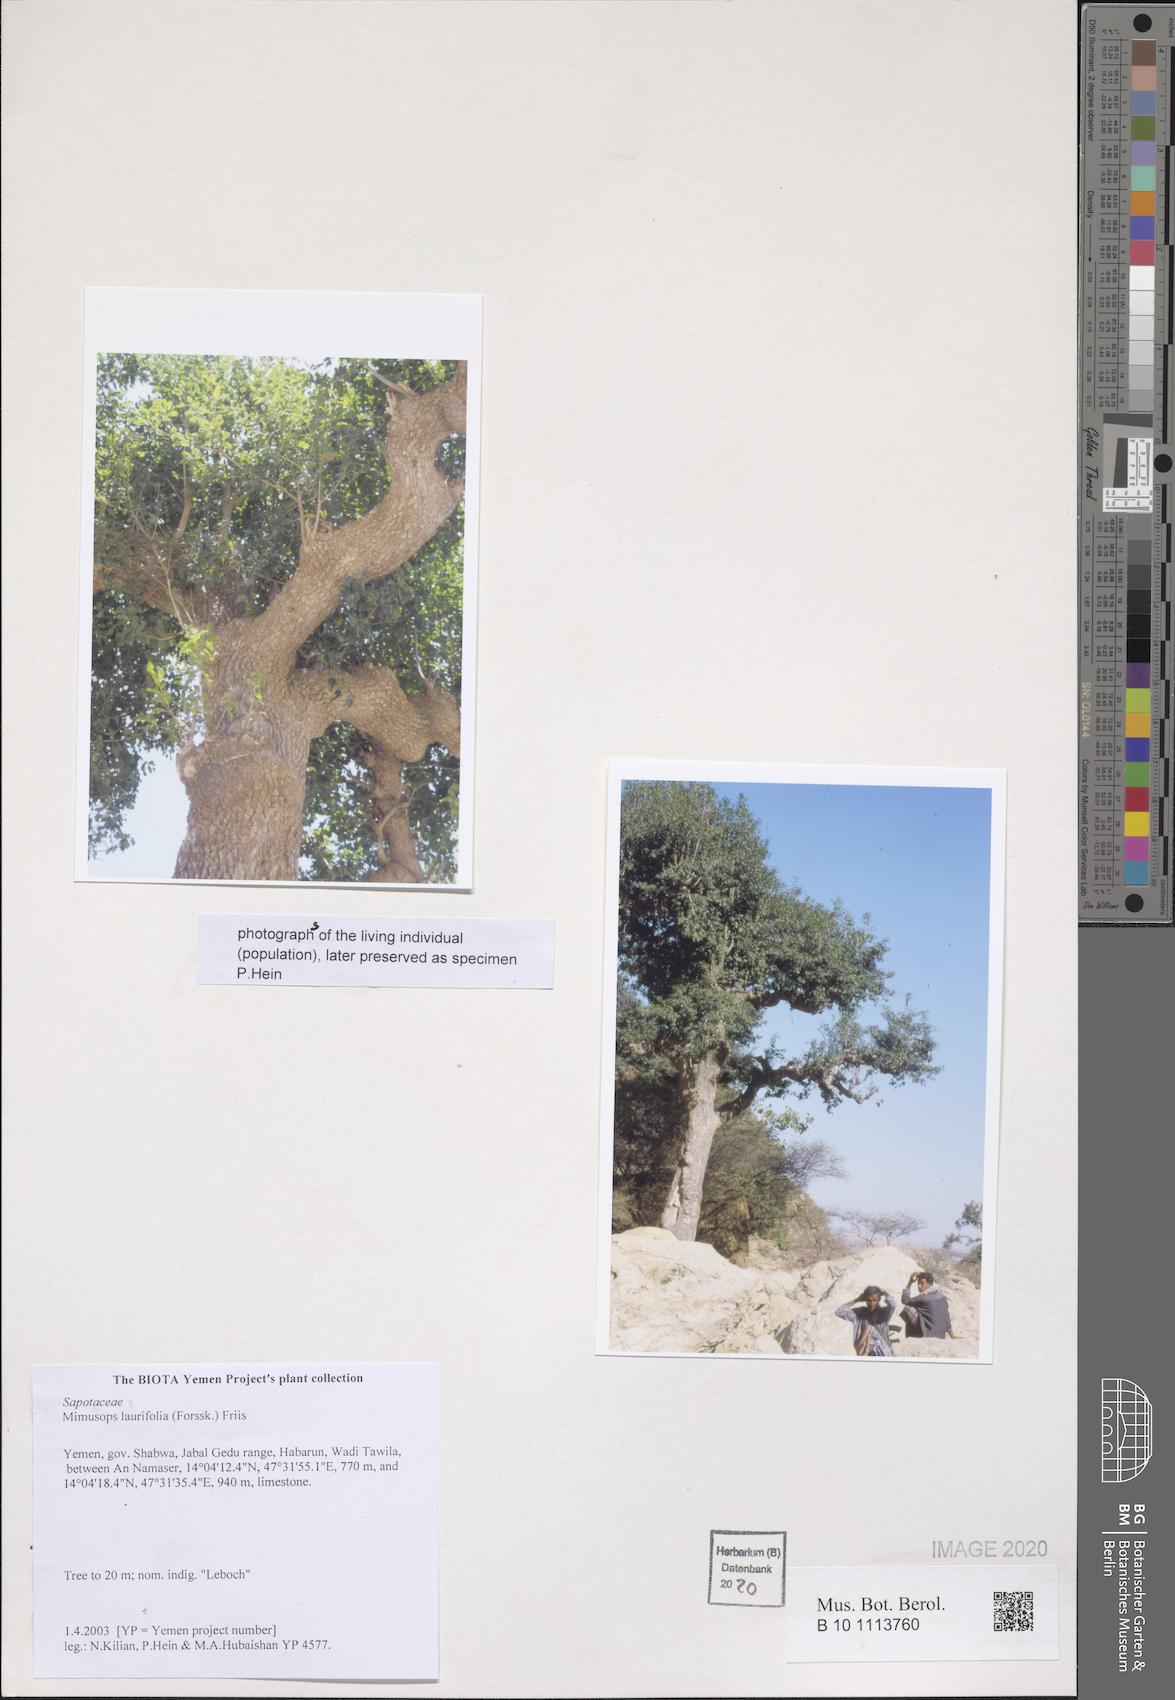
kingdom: Plantae
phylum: Tracheophyta
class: Magnoliopsida
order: Ericales
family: Sapotaceae
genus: Mimusops
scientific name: Mimusops laurifolia
